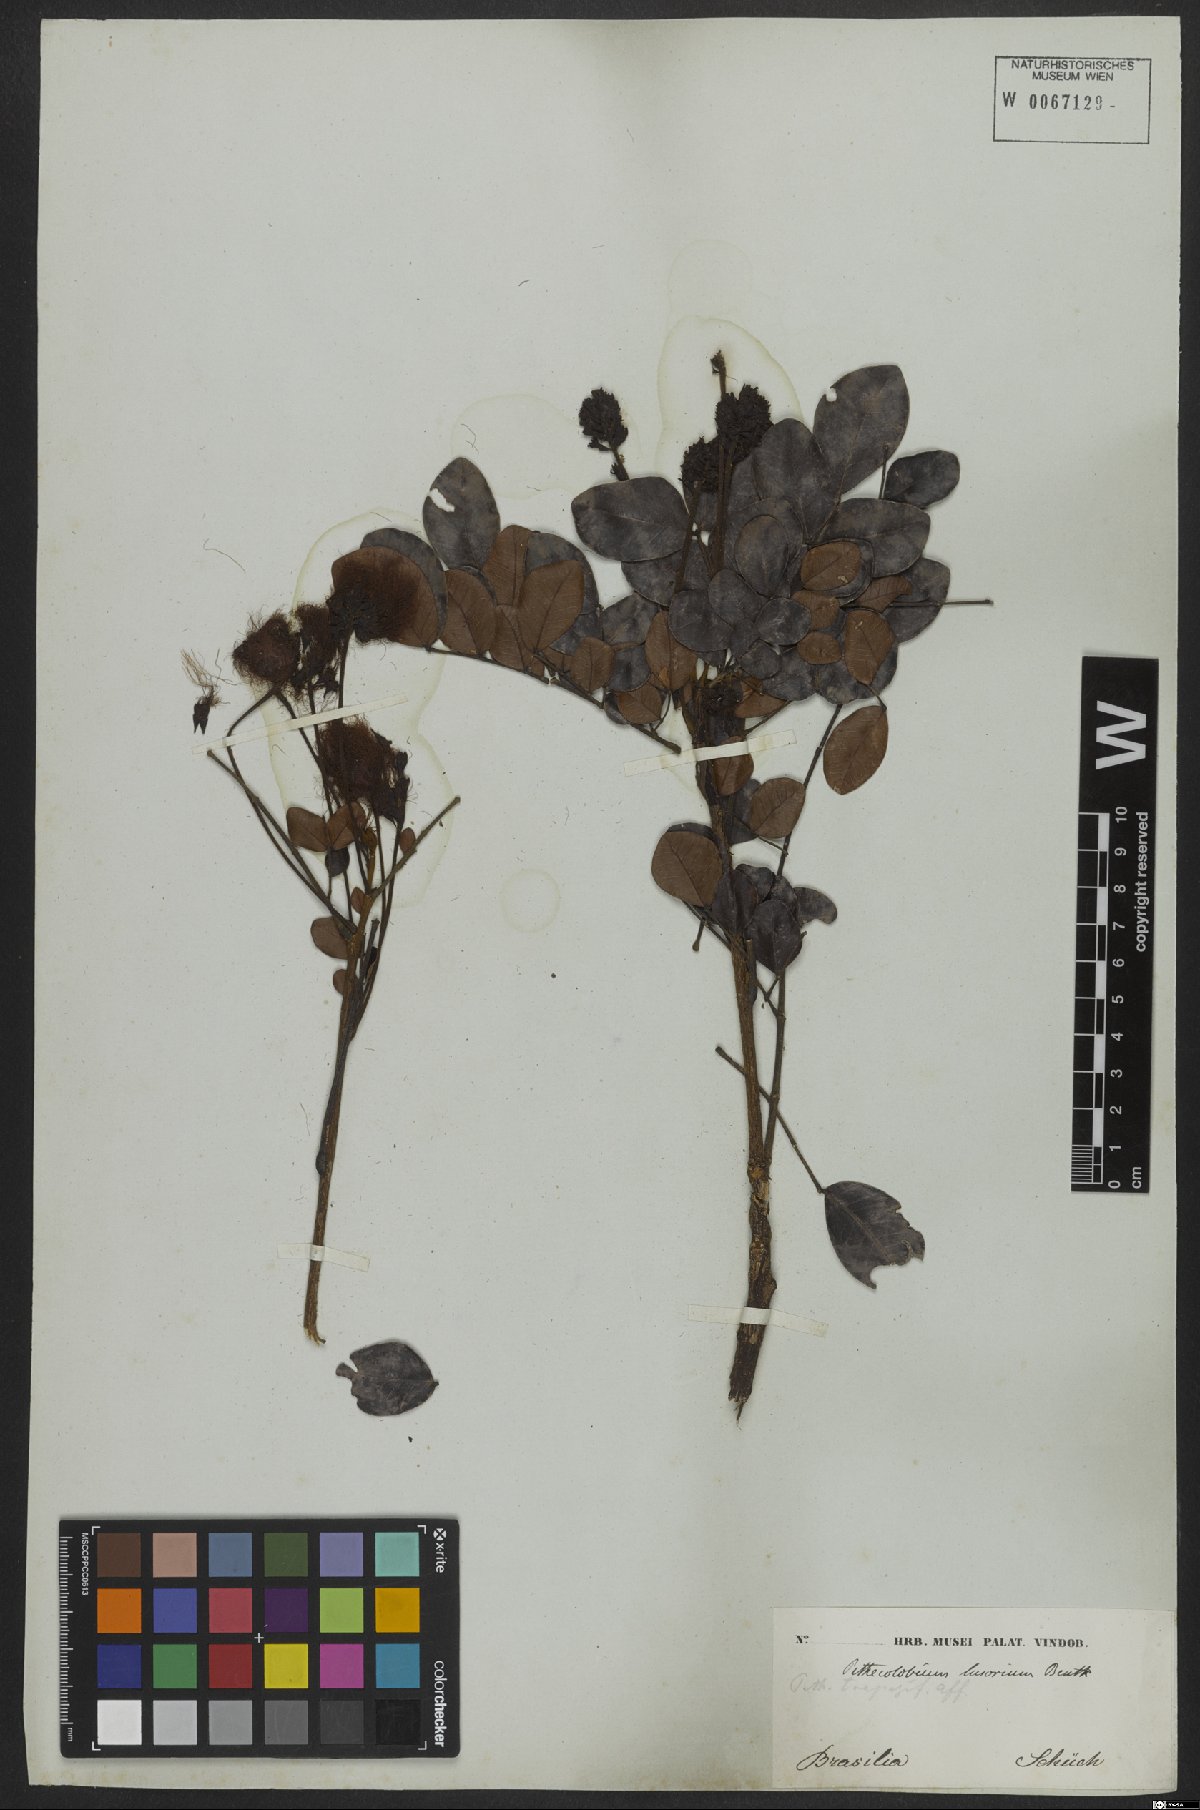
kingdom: Plantae
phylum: Tracheophyta
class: Magnoliopsida
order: Fabales
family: Fabaceae
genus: Jupunba
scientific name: Jupunba brachystachya
